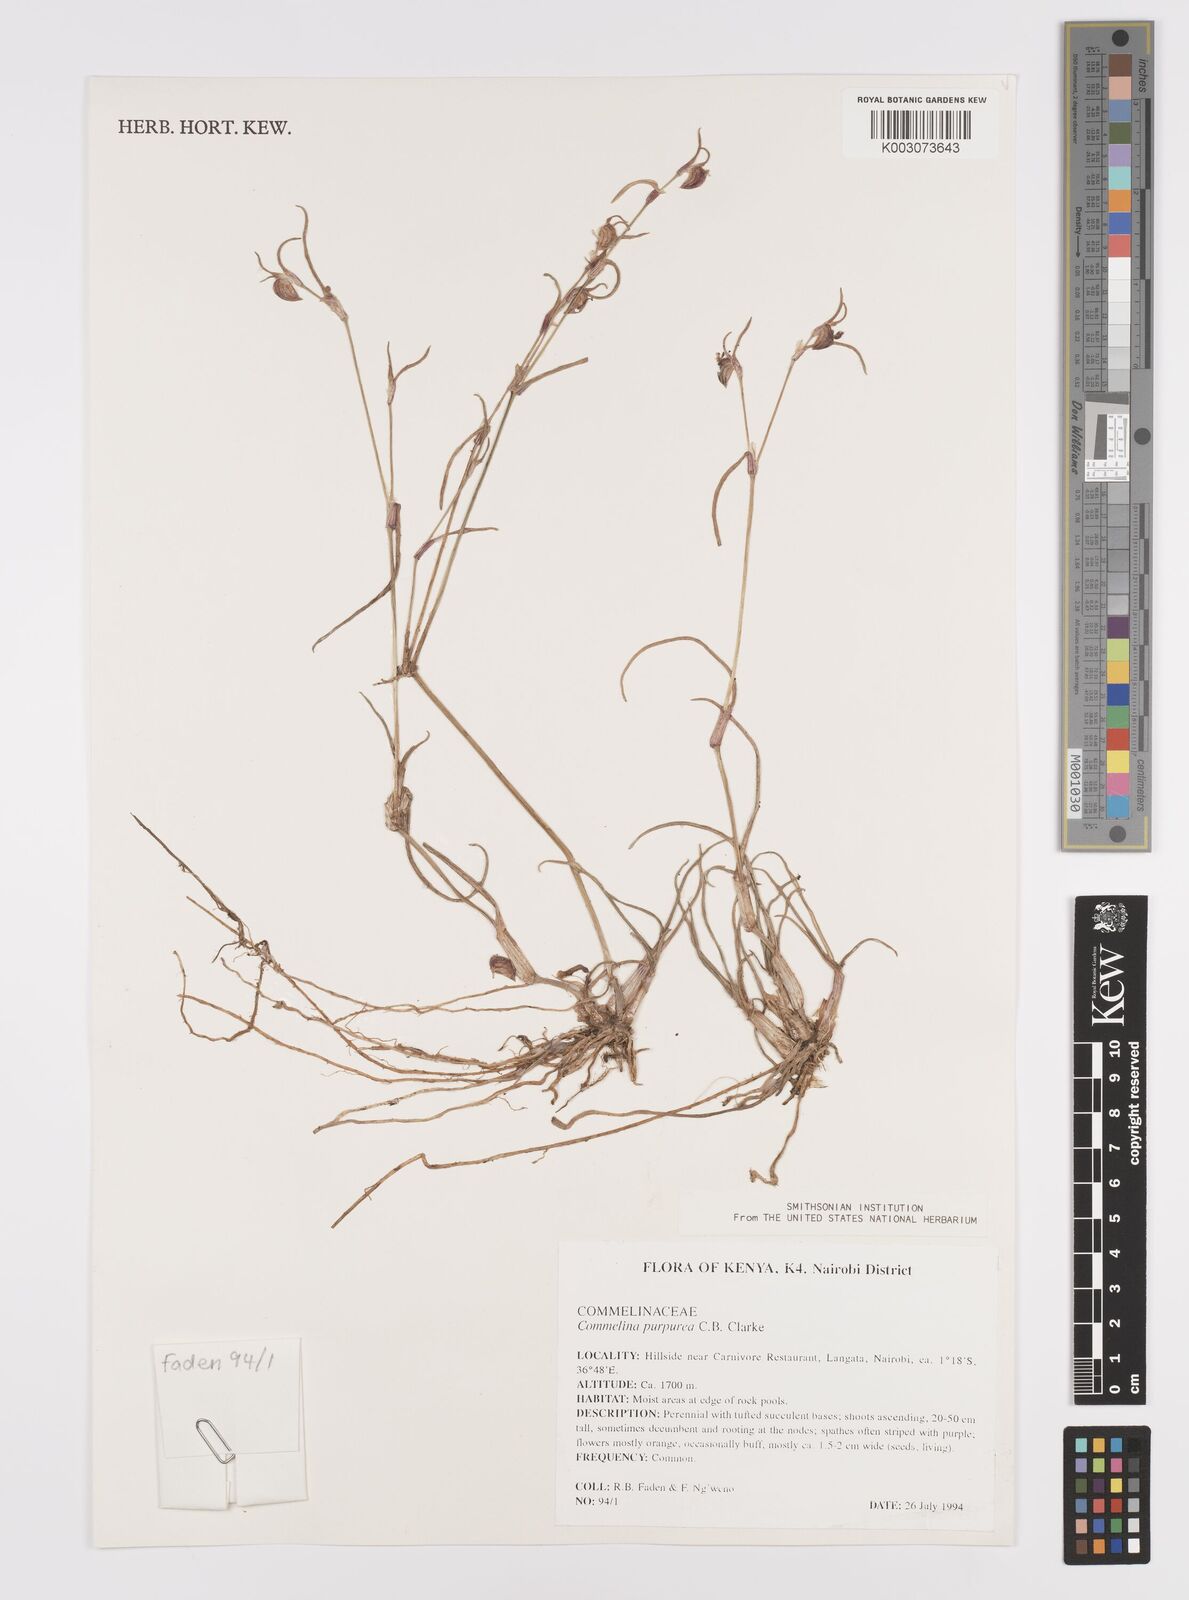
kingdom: Plantae
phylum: Tracheophyta
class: Liliopsida
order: Commelinales
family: Commelinaceae
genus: Commelina
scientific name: Commelina purpurea
